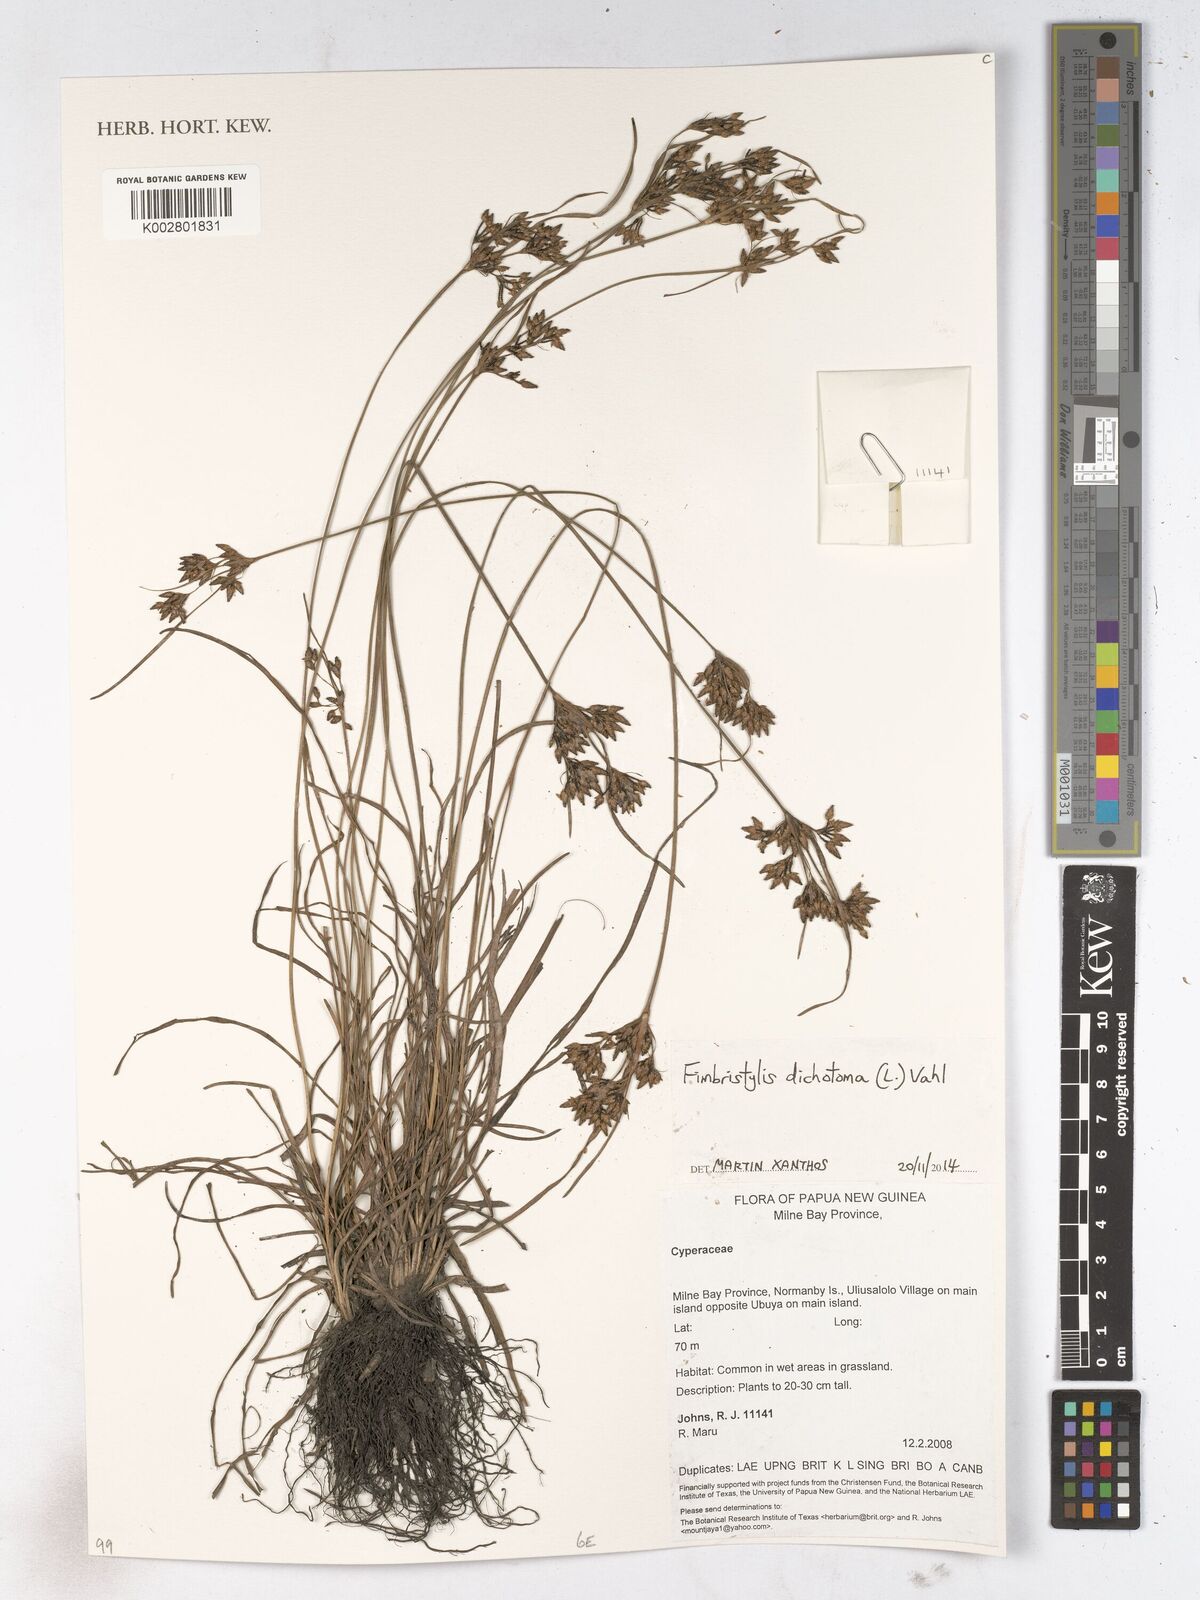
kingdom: Plantae
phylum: Tracheophyta
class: Liliopsida
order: Poales
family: Cyperaceae
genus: Fimbristylis
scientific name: Fimbristylis dichotoma
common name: Forked fimbry
